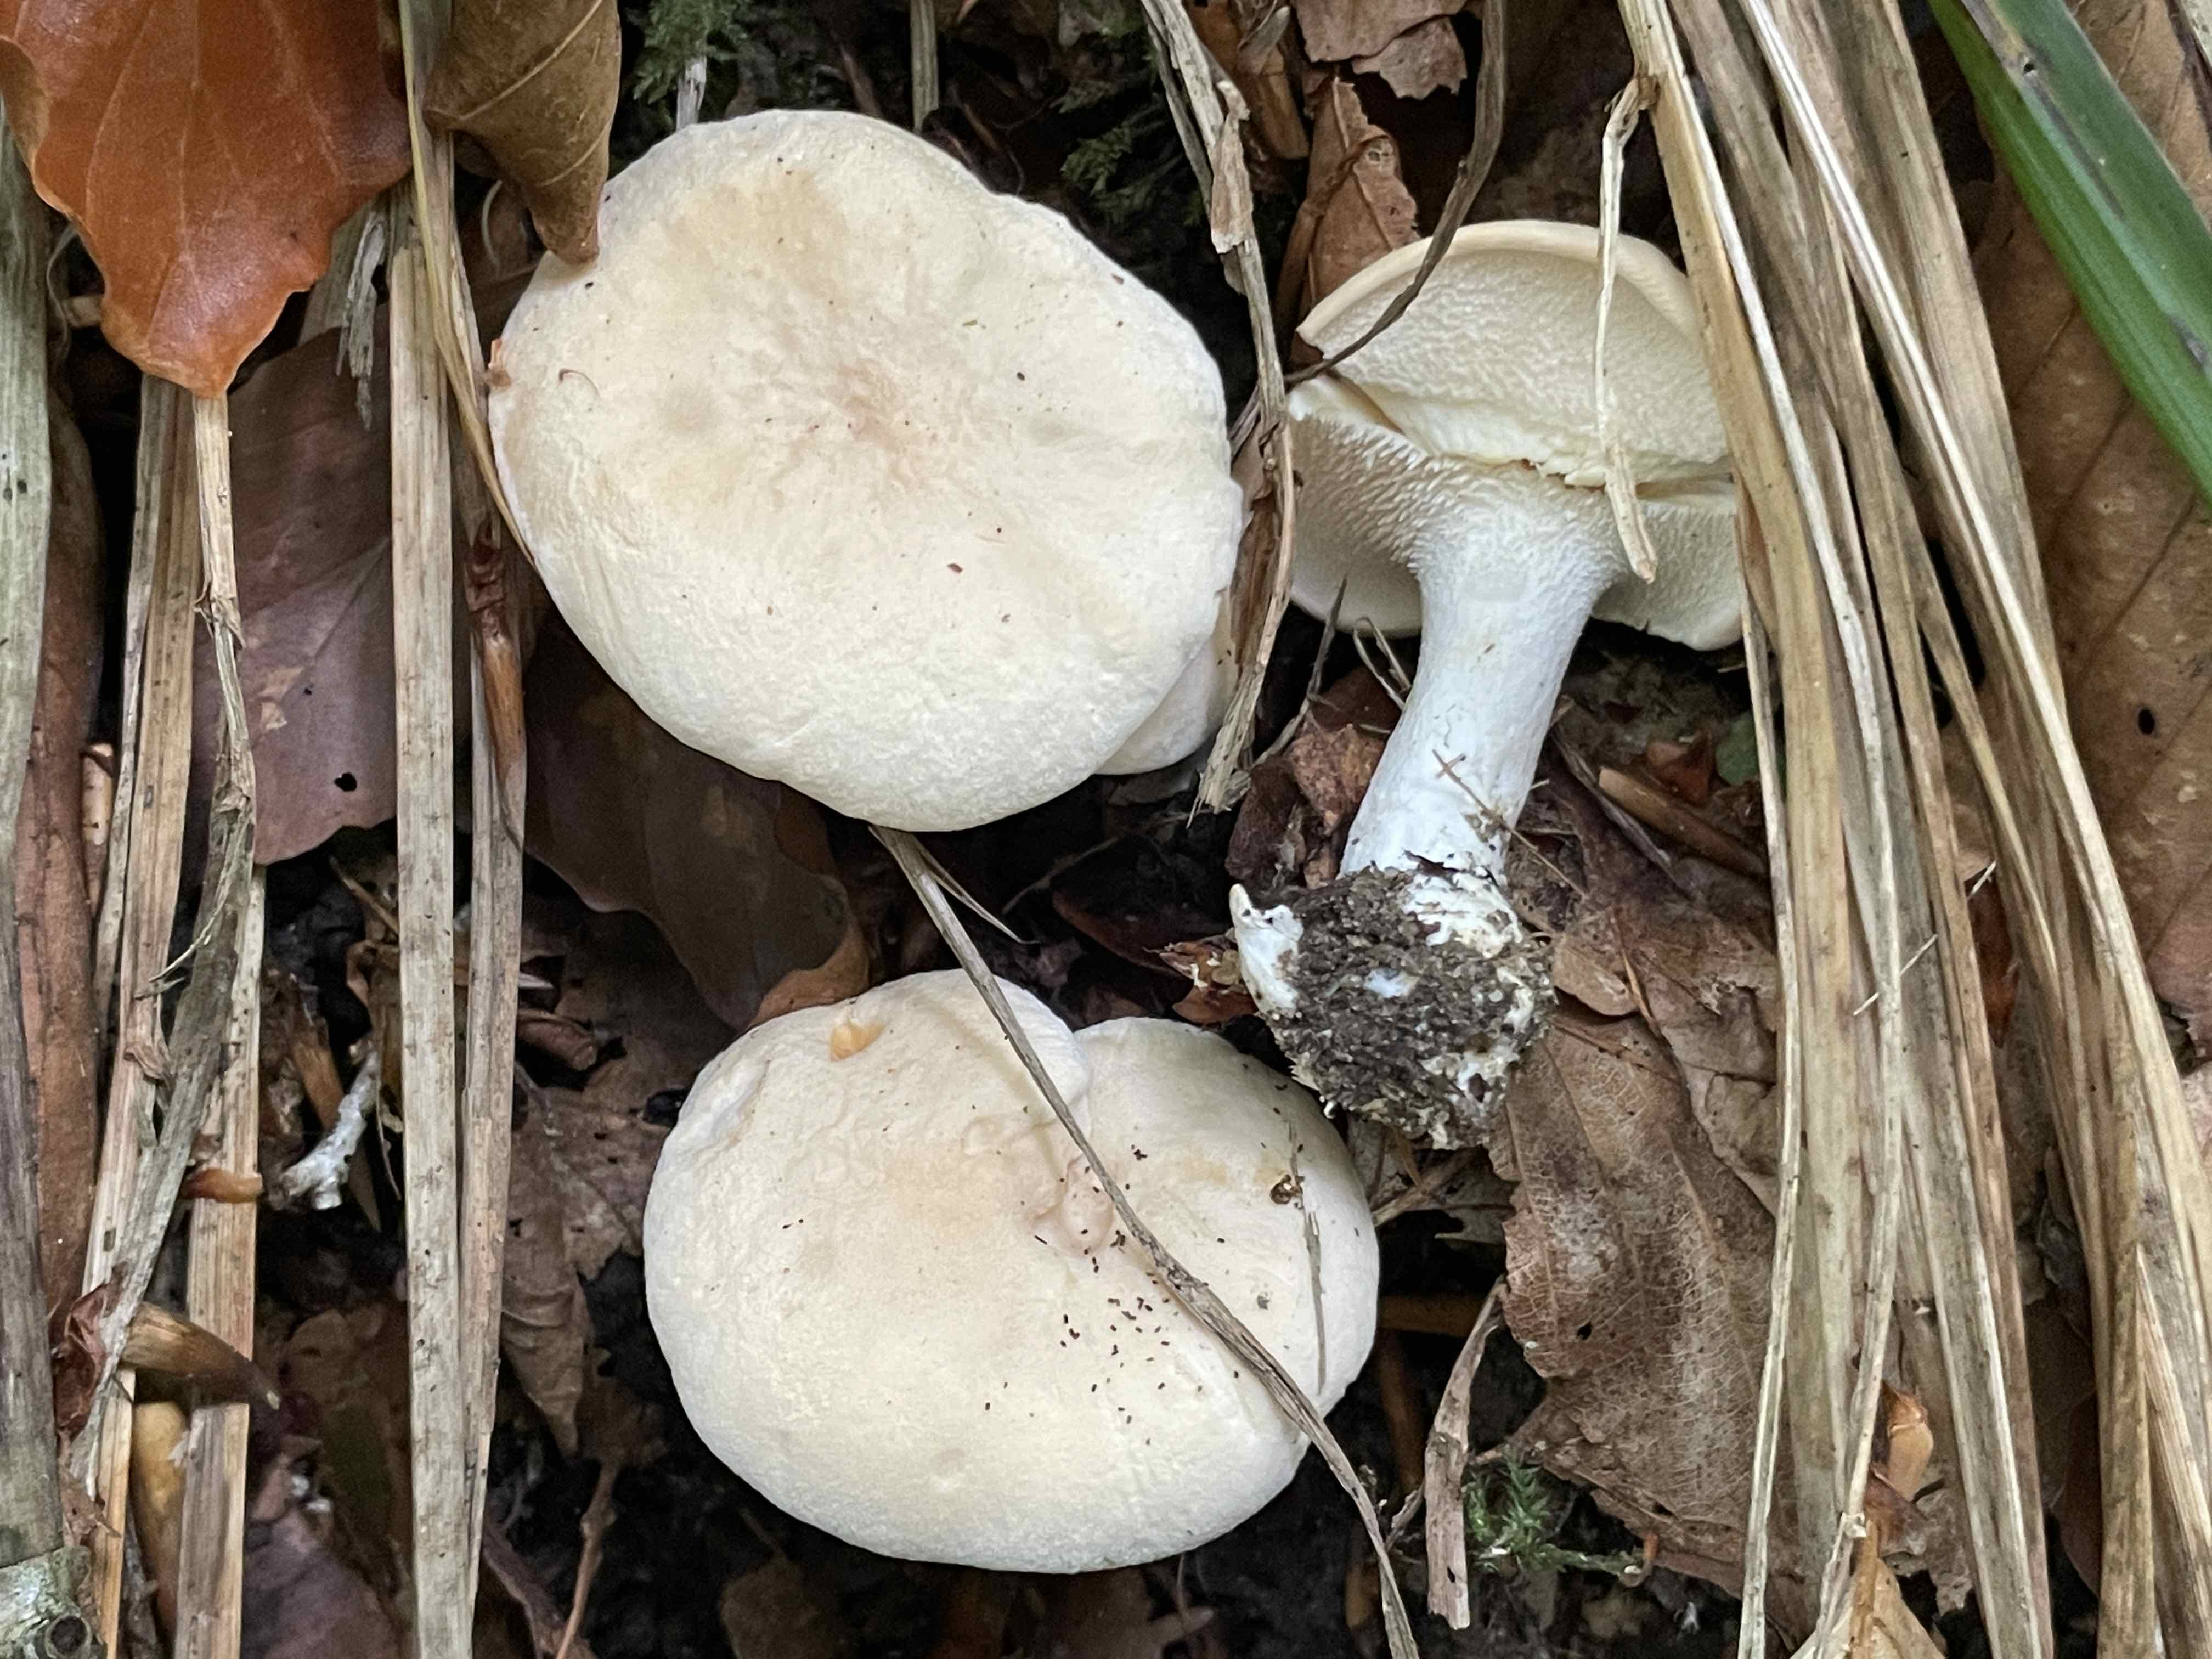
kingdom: Fungi
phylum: Basidiomycota
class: Agaricomycetes
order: Cantharellales
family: Hydnaceae
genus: Hydnum
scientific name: Hydnum repandum
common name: almindelig pigsvamp
